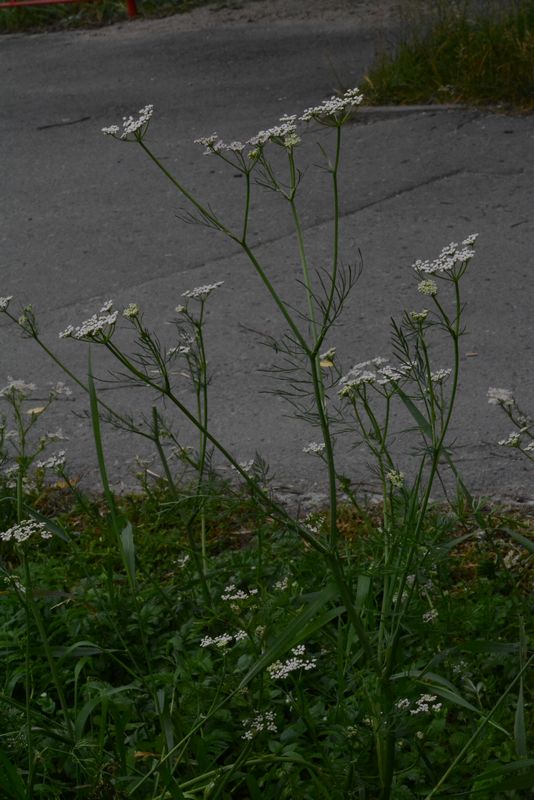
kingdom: Plantae
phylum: Tracheophyta
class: Magnoliopsida
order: Apiales
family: Apiaceae
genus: Carum
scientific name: Carum carvi
